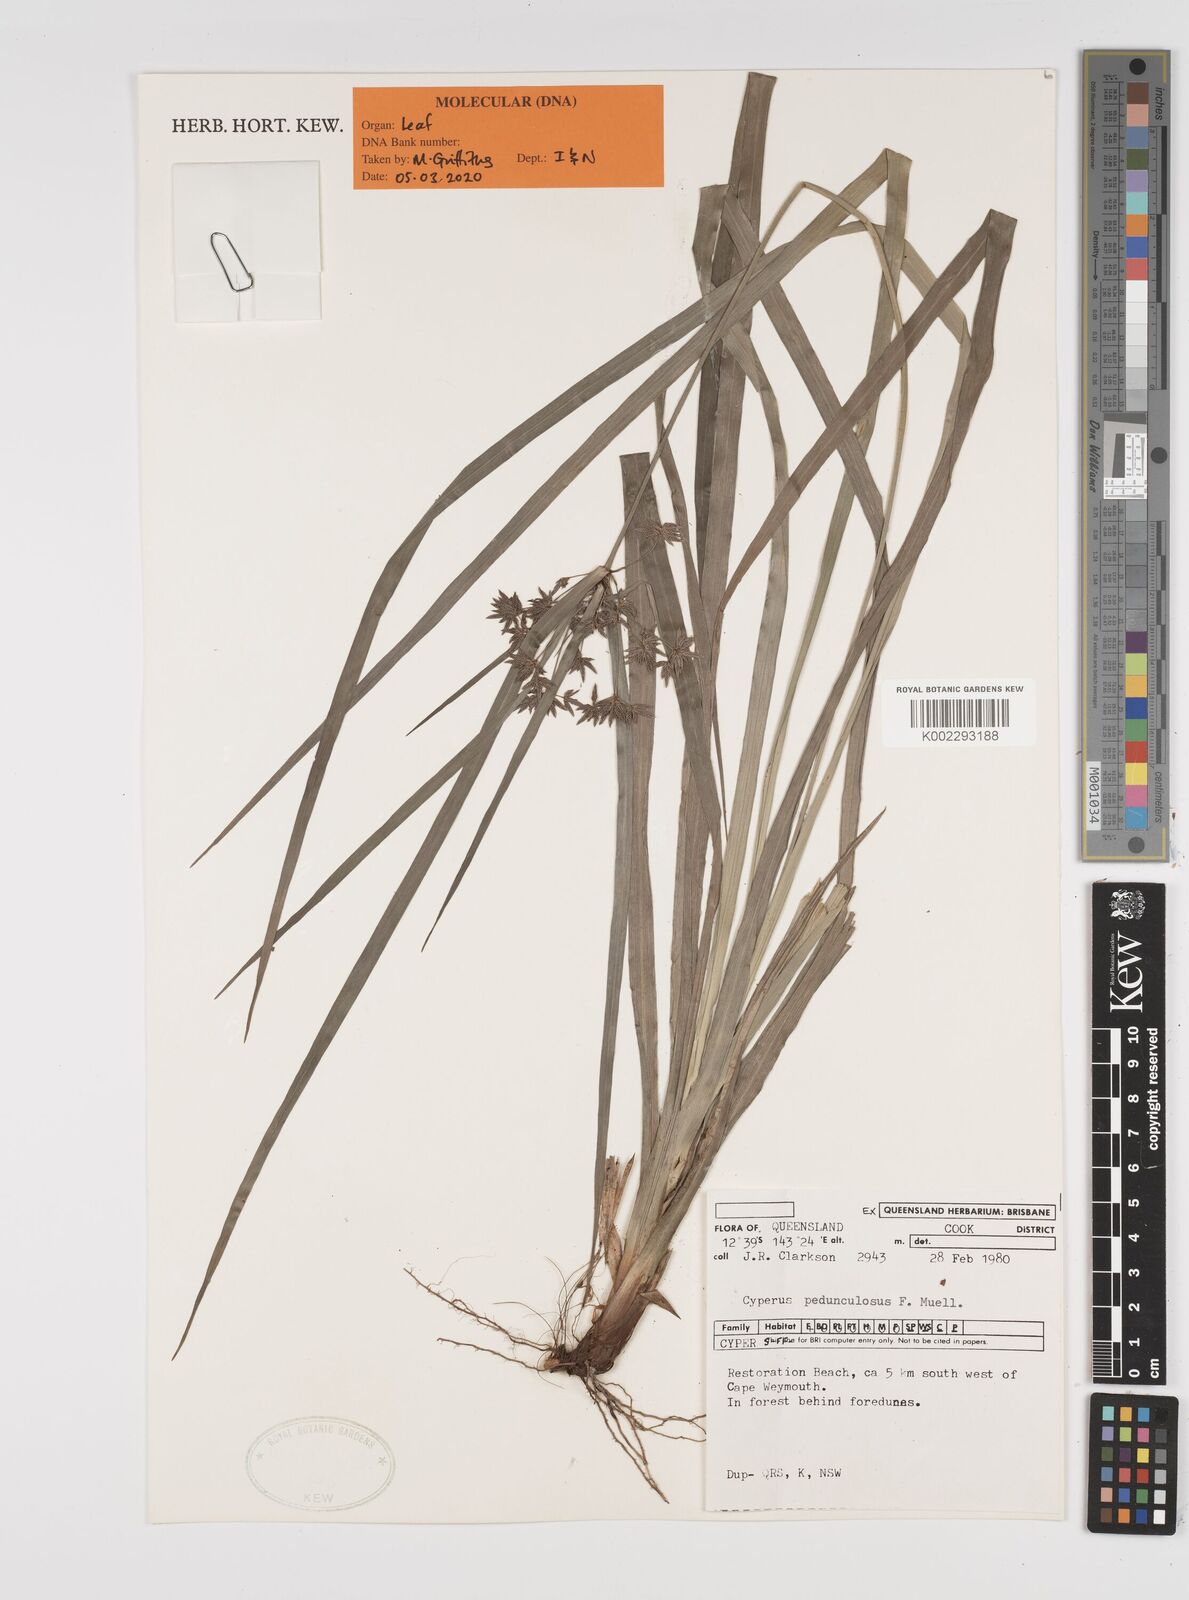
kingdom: Plantae
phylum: Tracheophyta
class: Liliopsida
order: Poales
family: Cyperaceae
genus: Cyperus
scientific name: Cyperus pedunculosus
